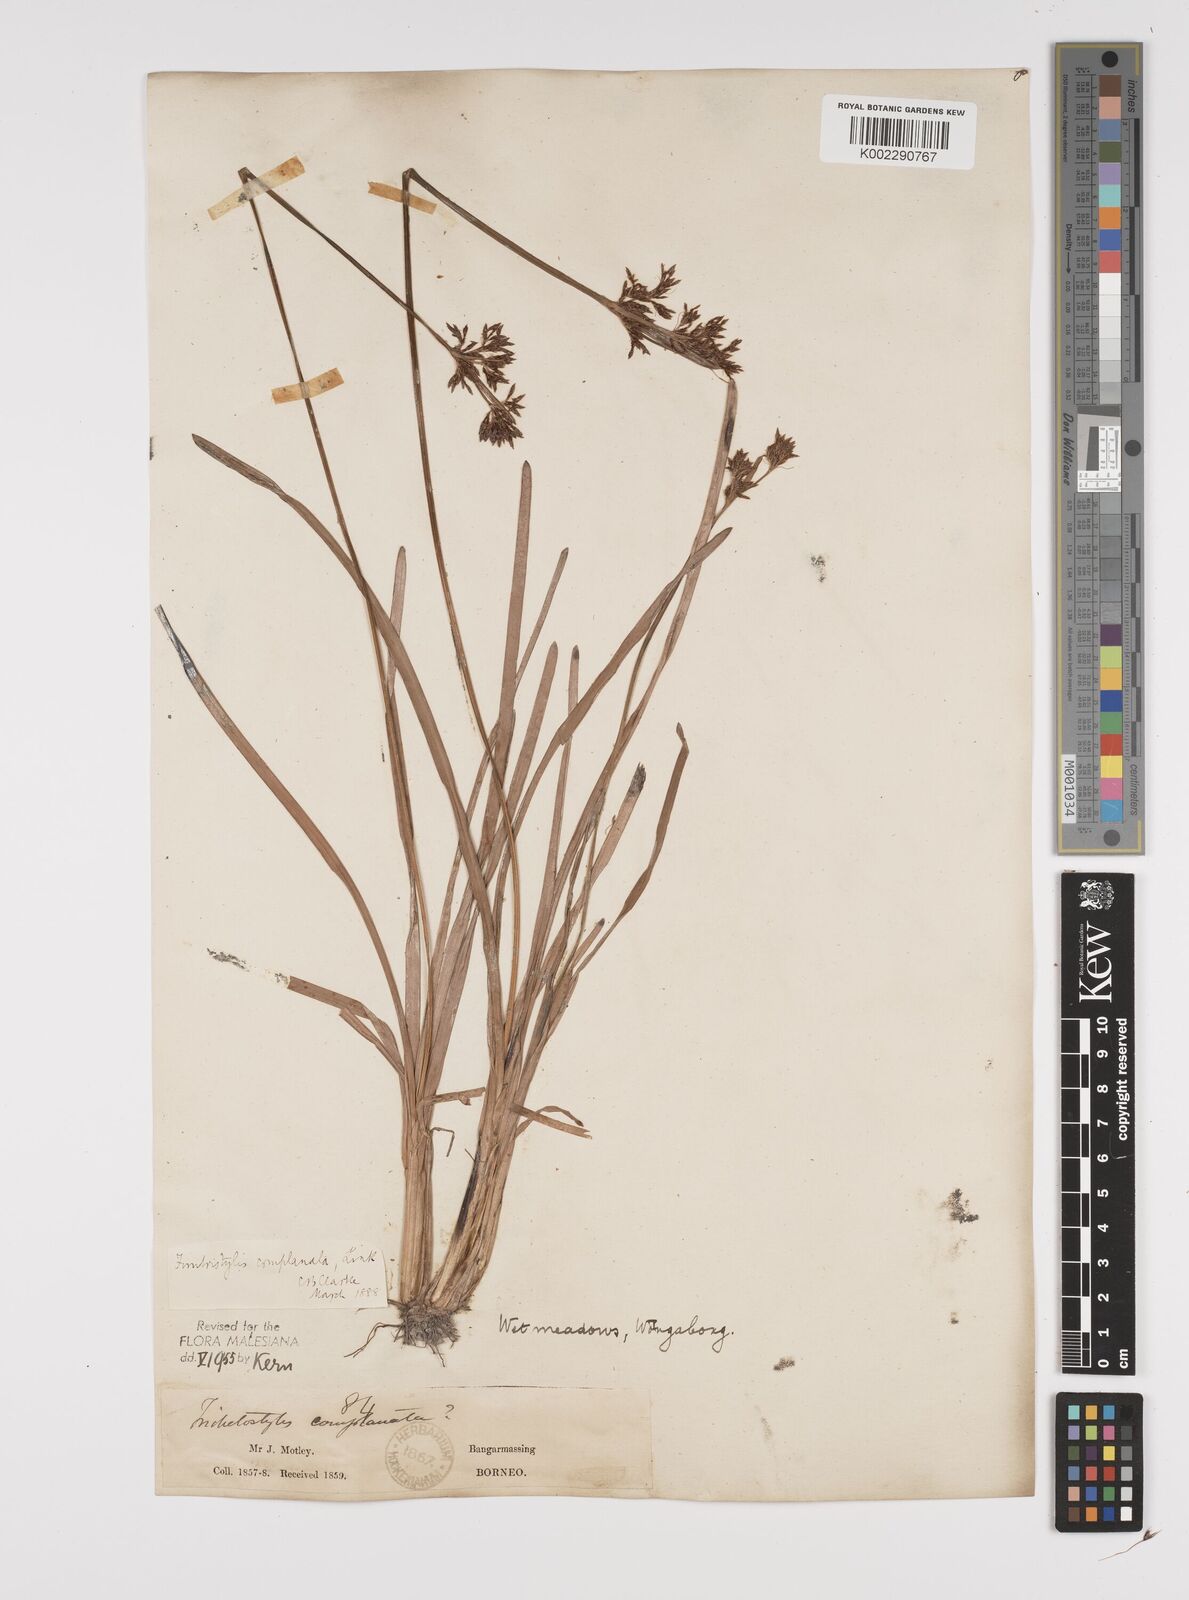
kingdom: Plantae
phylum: Tracheophyta
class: Liliopsida
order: Poales
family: Cyperaceae
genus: Fimbristylis
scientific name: Fimbristylis complanata
